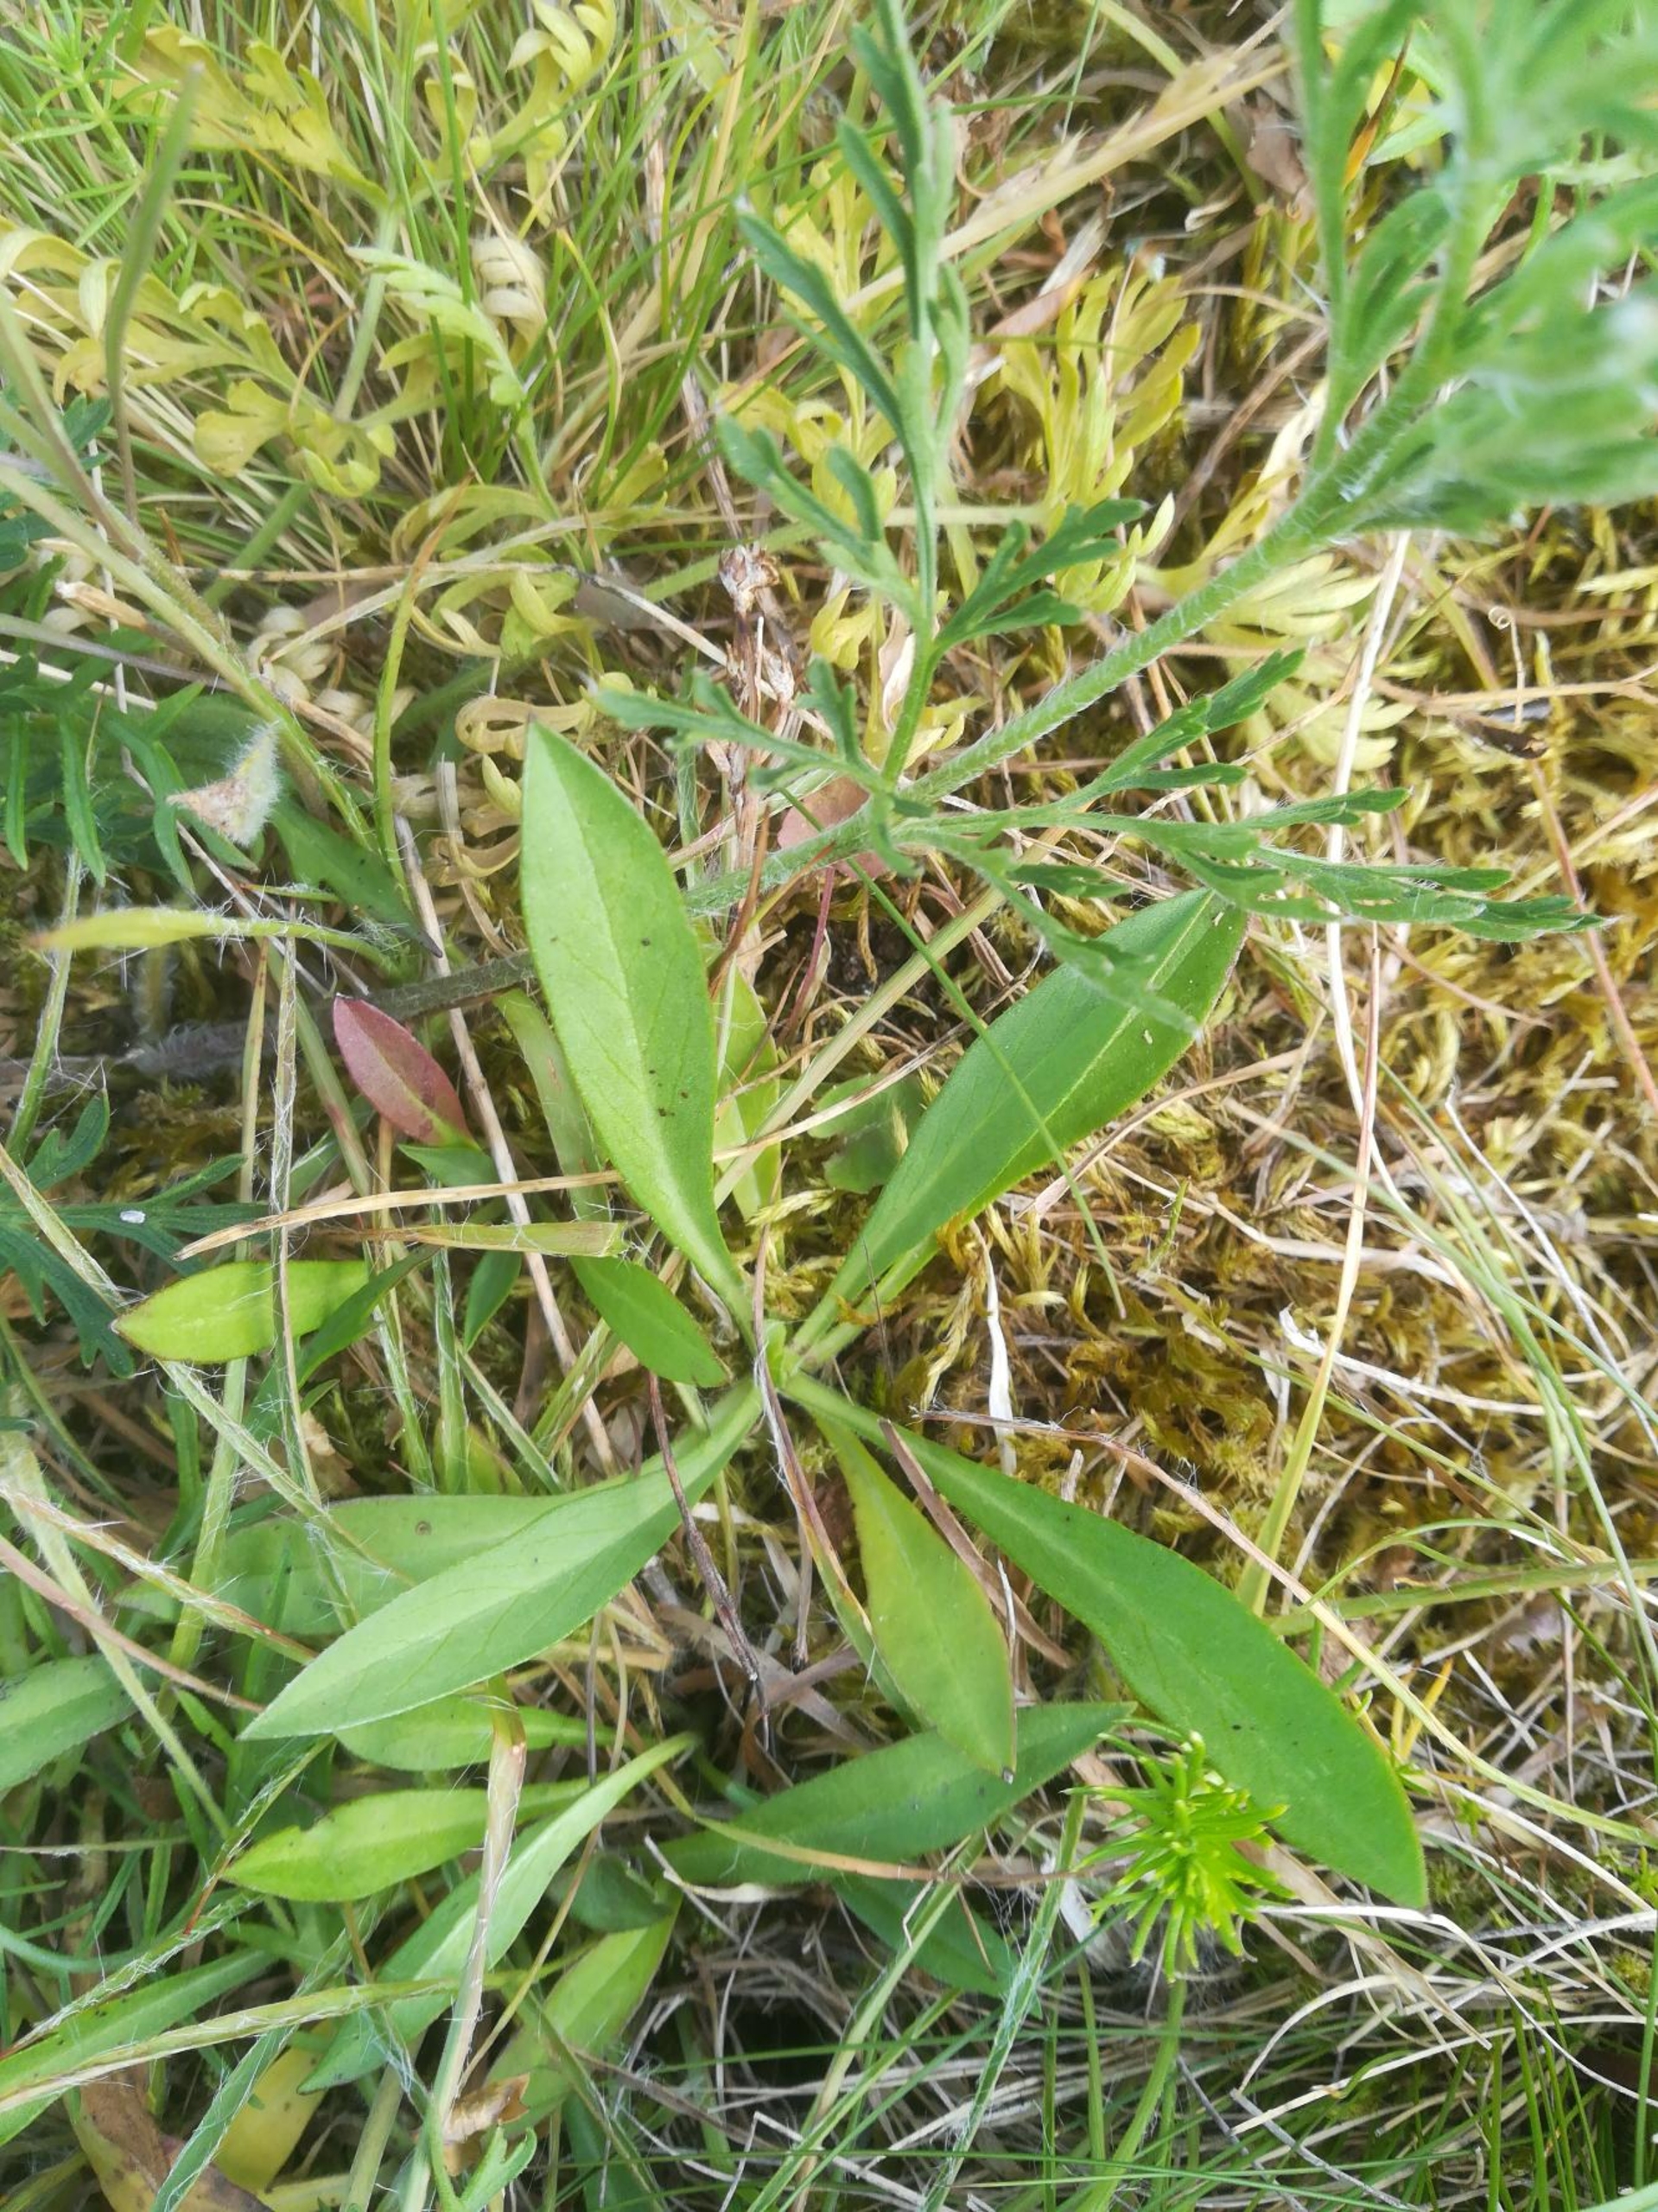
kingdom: Plantae
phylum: Tracheophyta
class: Magnoliopsida
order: Dipsacales
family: Caprifoliaceae
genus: Scabiosa
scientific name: Scabiosa canescens
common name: Vellugtende skabiose
